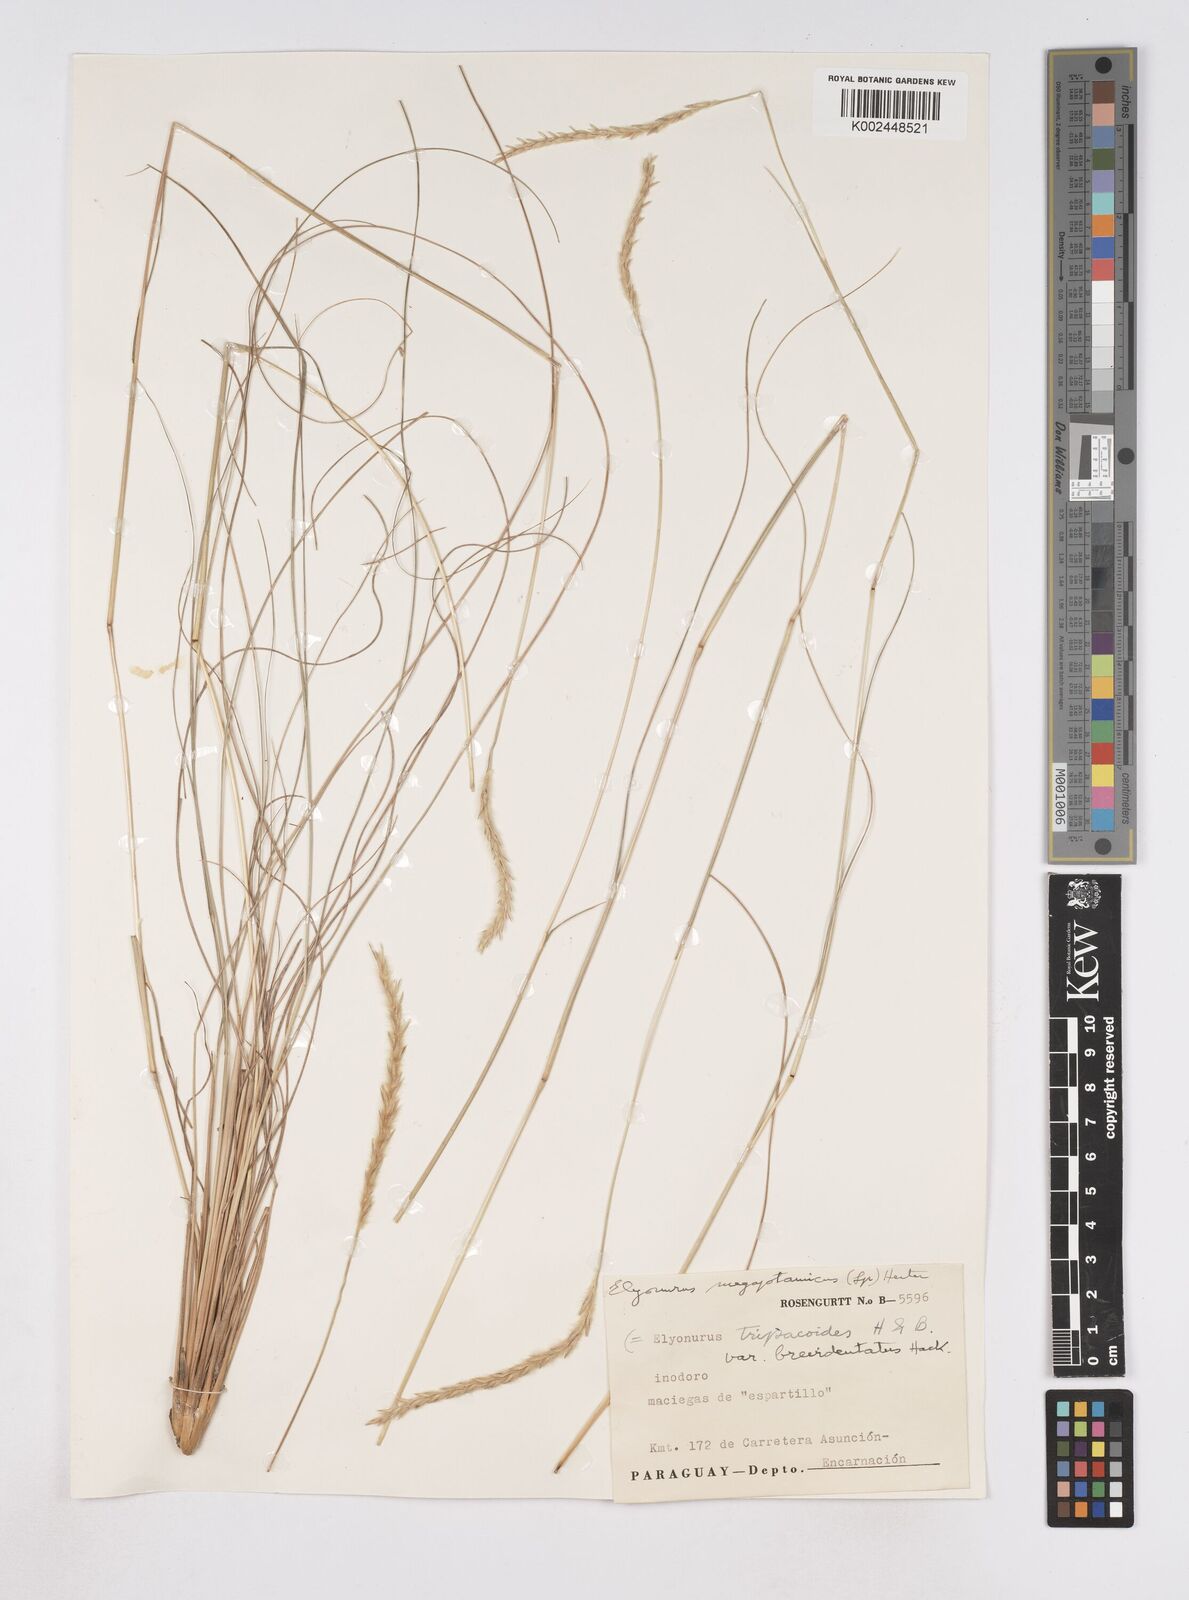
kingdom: Plantae
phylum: Tracheophyta
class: Liliopsida
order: Poales
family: Poaceae
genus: Elionurus
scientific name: Elionurus muticus
